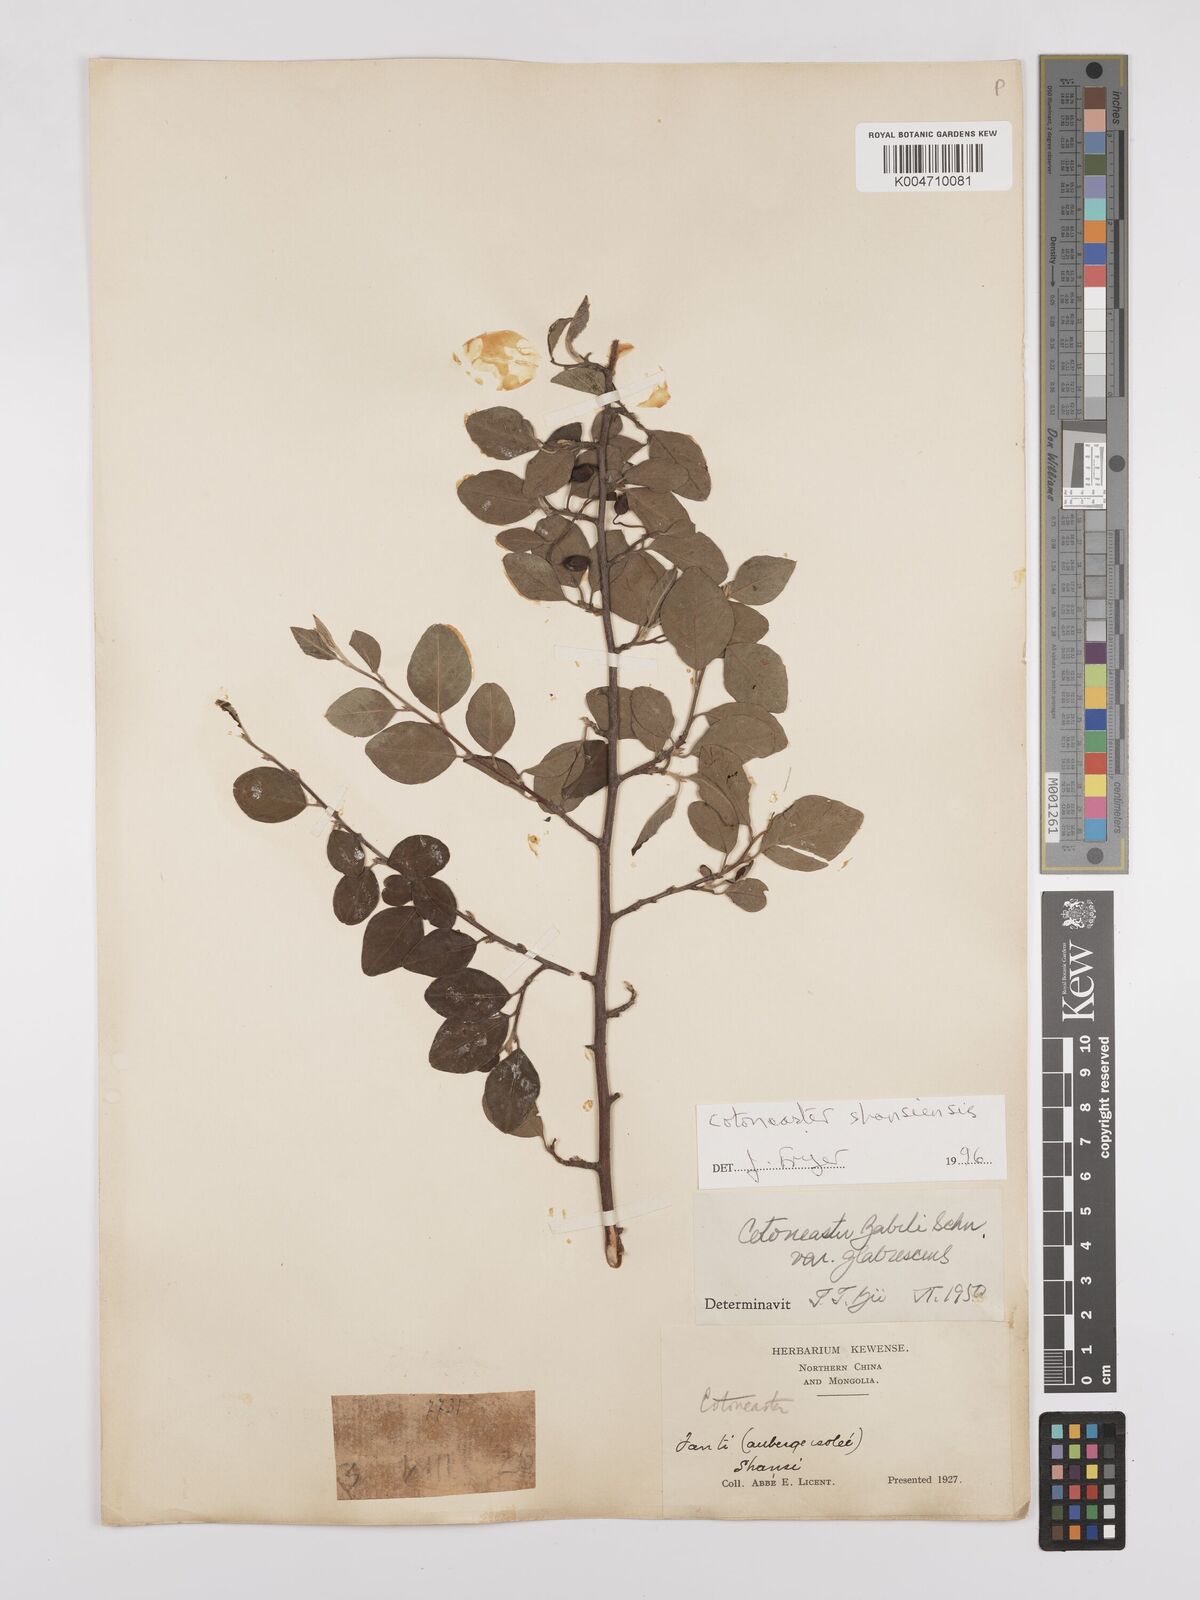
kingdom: Plantae
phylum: Tracheophyta
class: Magnoliopsida
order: Rosales
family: Rosaceae
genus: Cotoneaster
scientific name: Cotoneaster zabelii
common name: Cherryred cotoneaster
